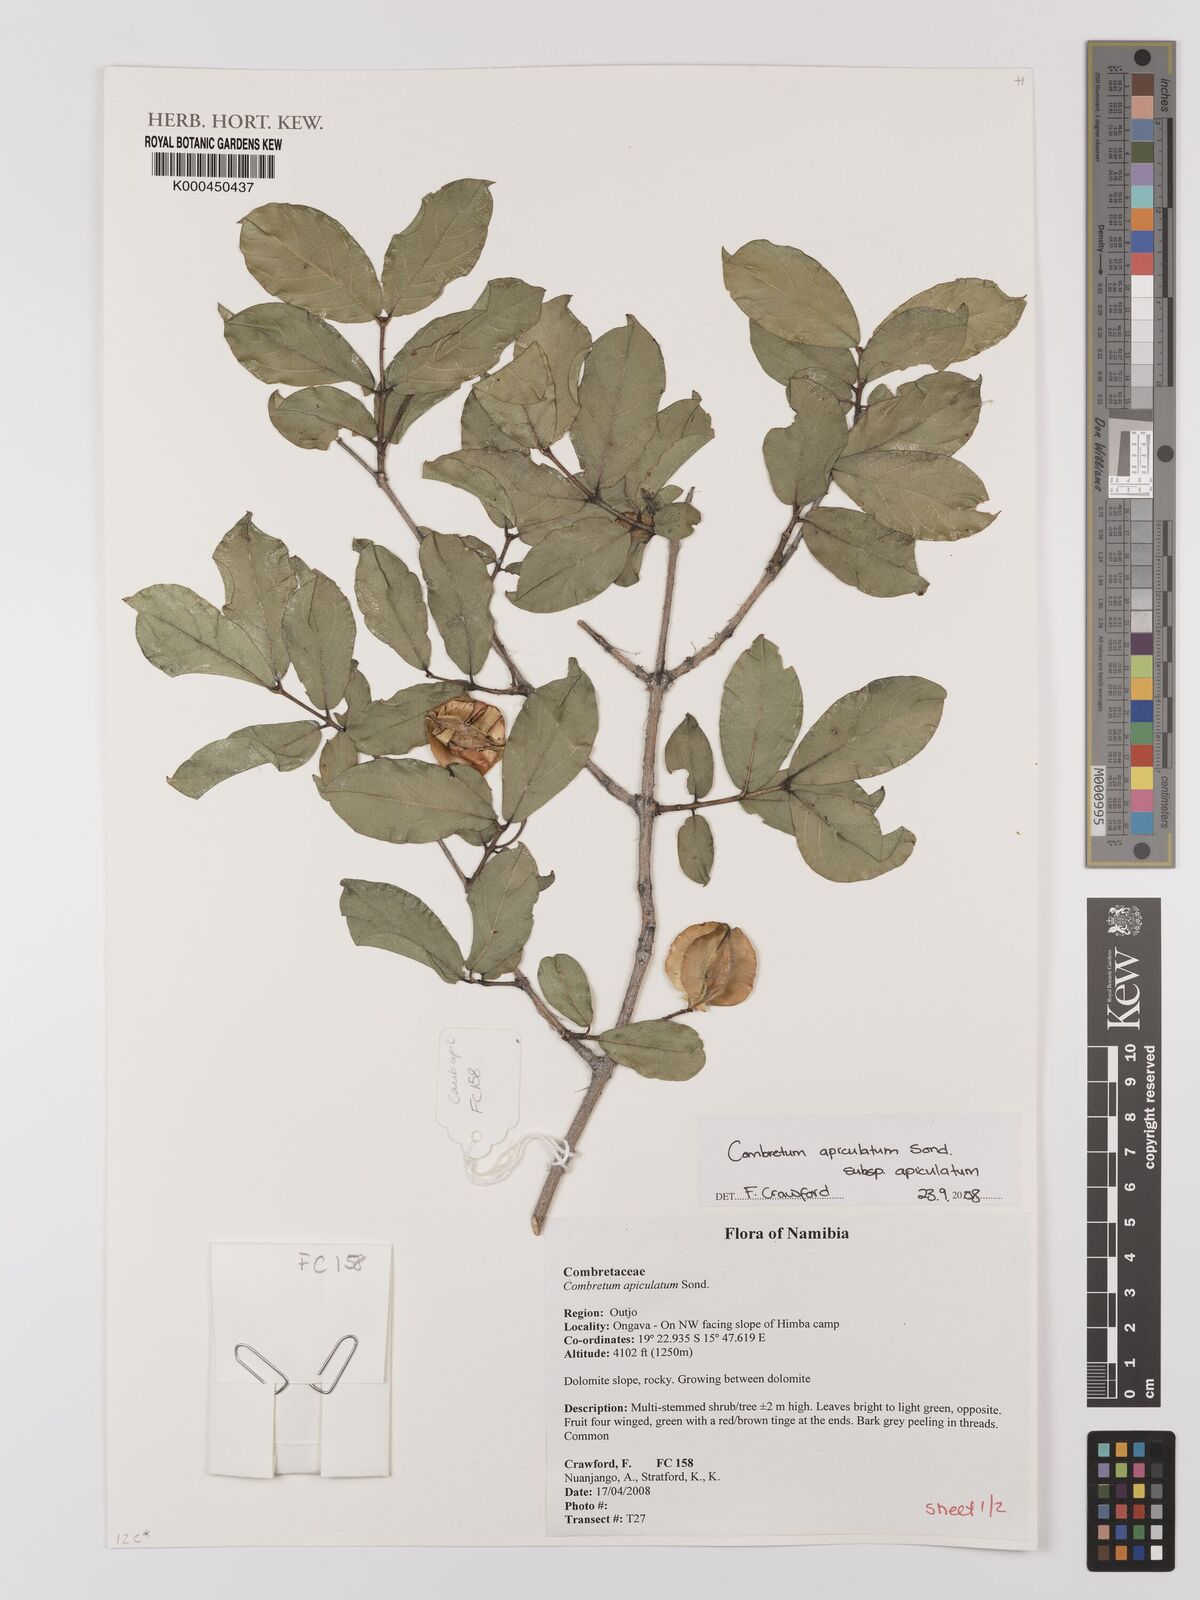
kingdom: Plantae
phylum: Tracheophyta
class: Magnoliopsida
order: Myrtales
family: Combretaceae
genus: Combretum
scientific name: Combretum apiculatum
